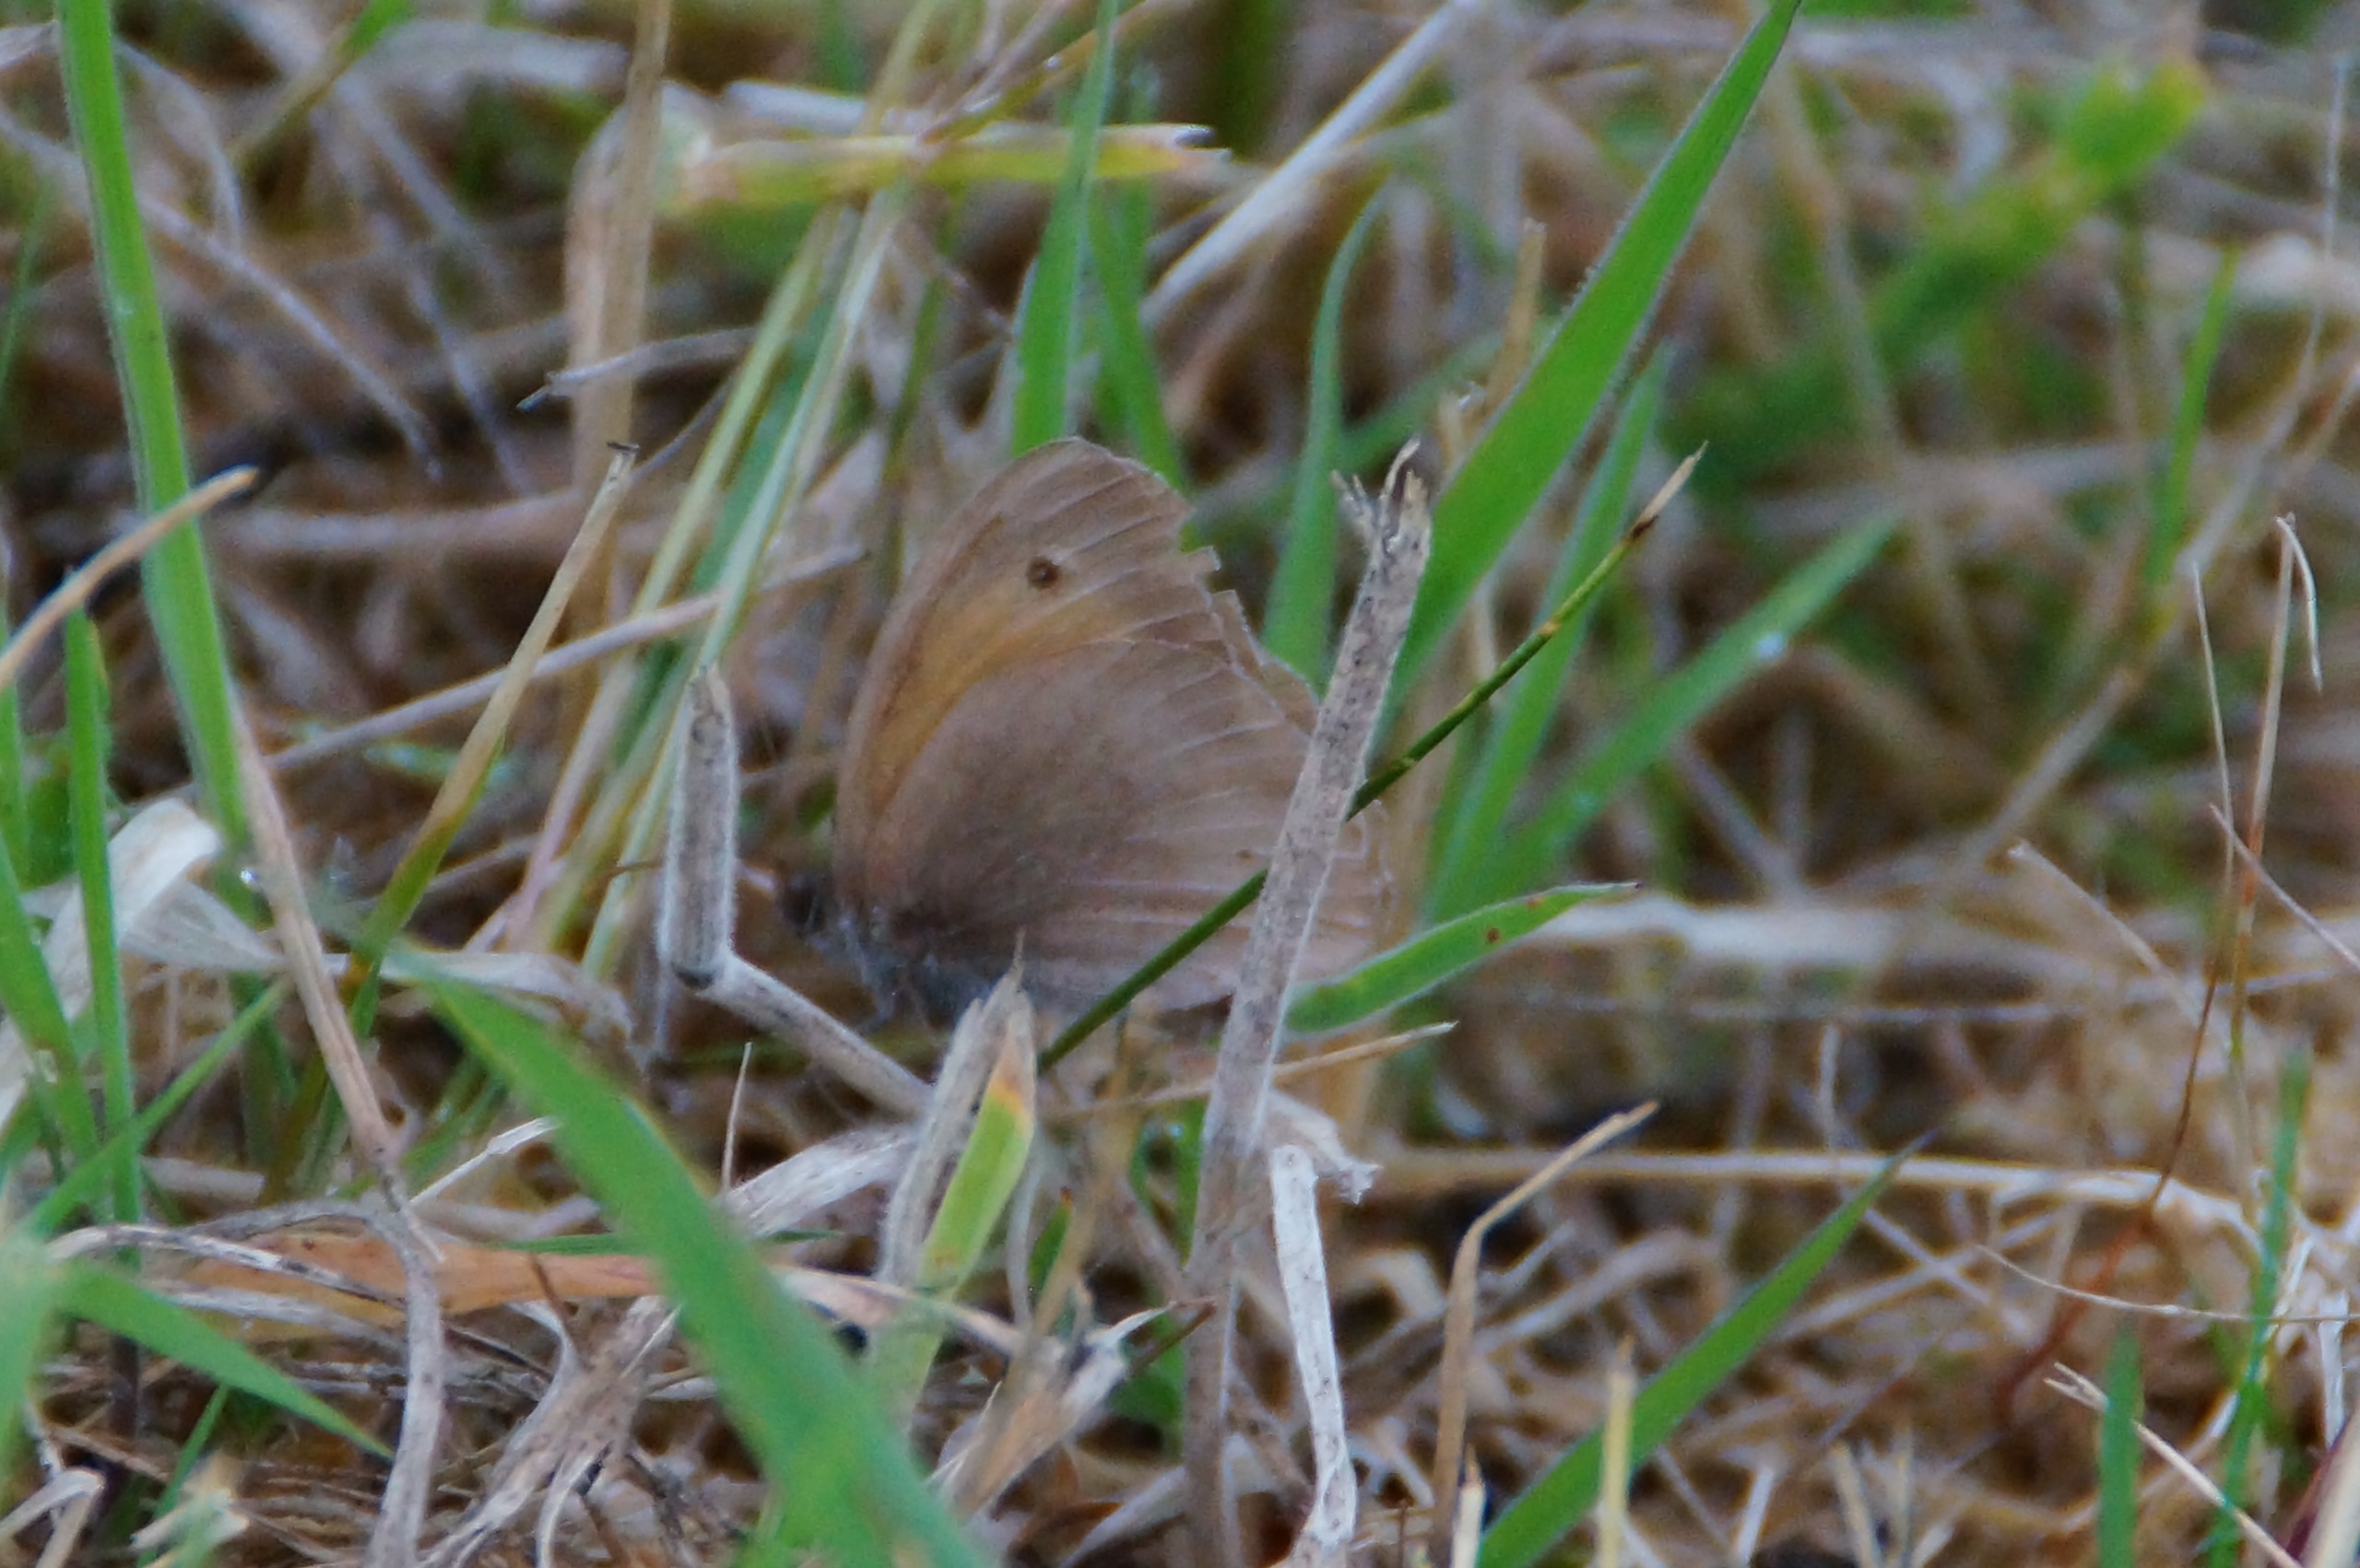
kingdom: Animalia
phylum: Arthropoda
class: Insecta
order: Lepidoptera
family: Nymphalidae
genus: Maniola
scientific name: Maniola jurtina
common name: Græsrandøje
